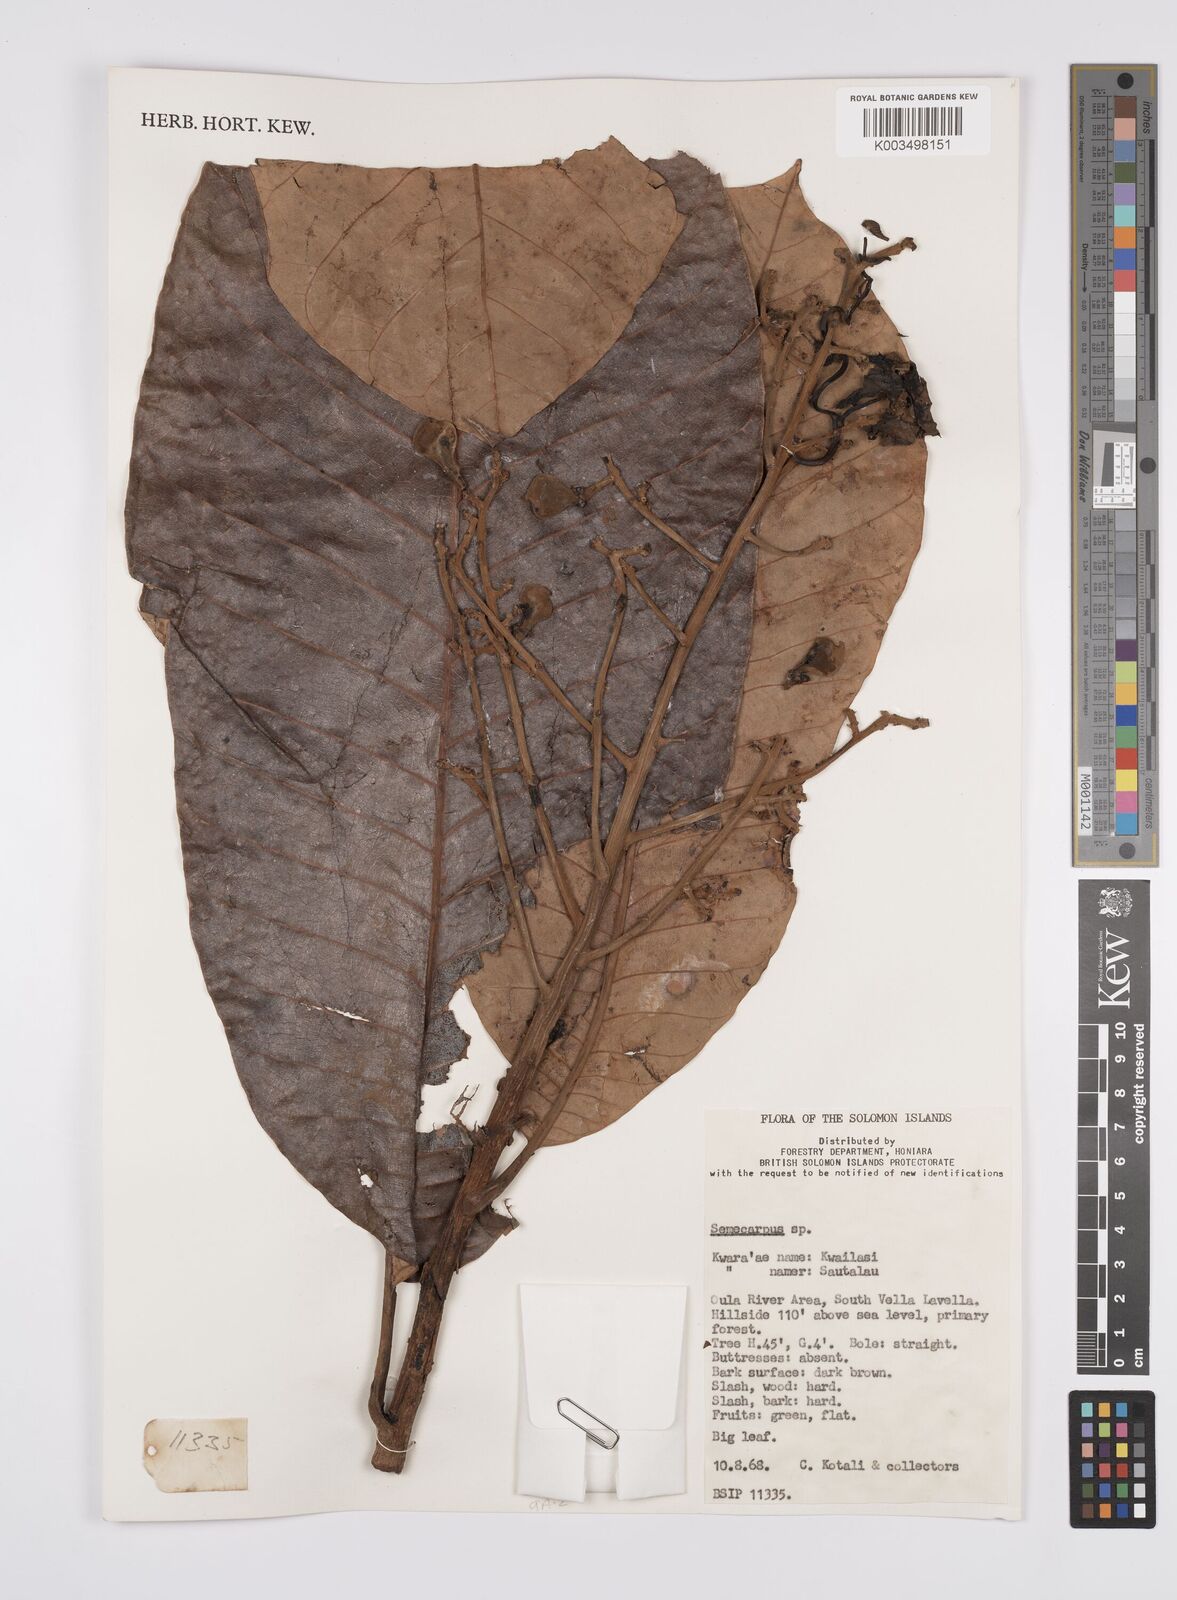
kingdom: Plantae
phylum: Tracheophyta
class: Magnoliopsida
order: Sapindales
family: Anacardiaceae
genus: Semecarpus
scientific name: Semecarpus
